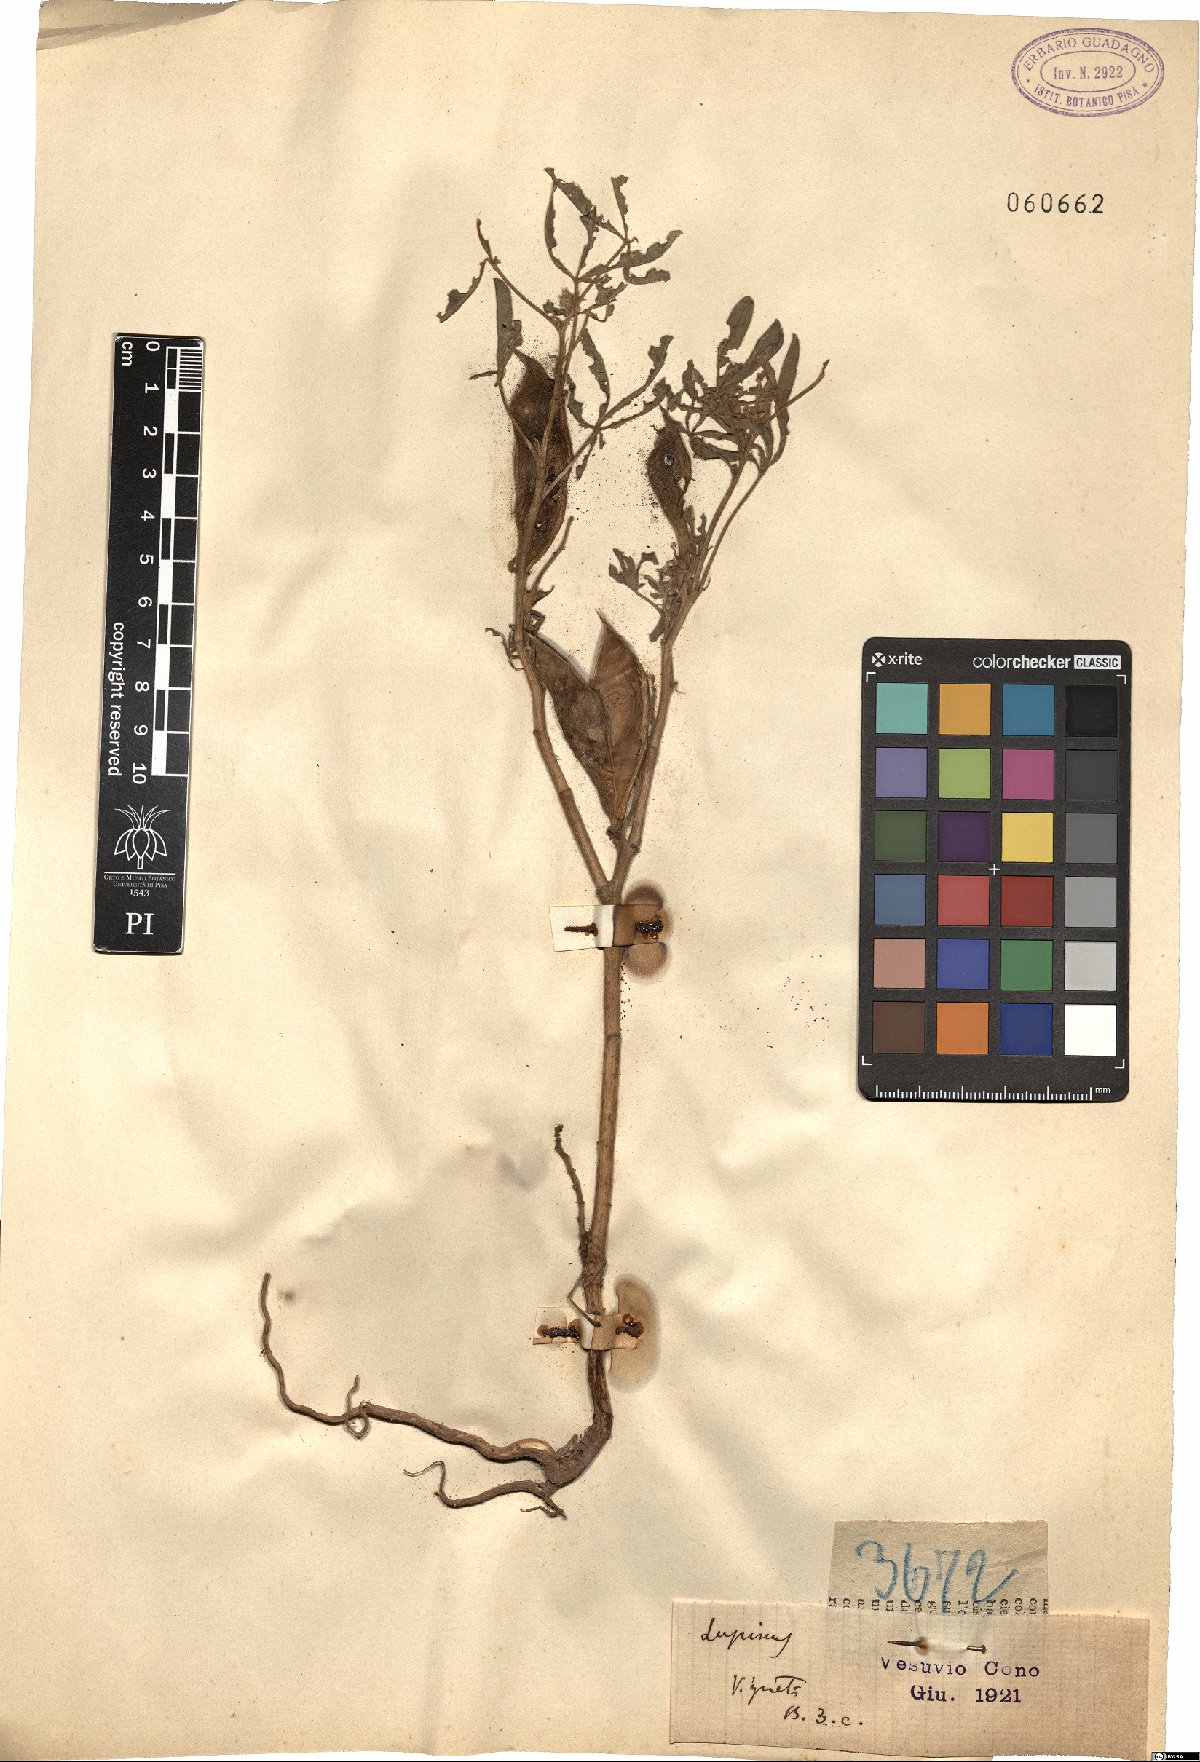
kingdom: Plantae
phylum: Tracheophyta
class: Magnoliopsida
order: Fabales
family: Fabaceae
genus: Lupinus
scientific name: Lupinus
